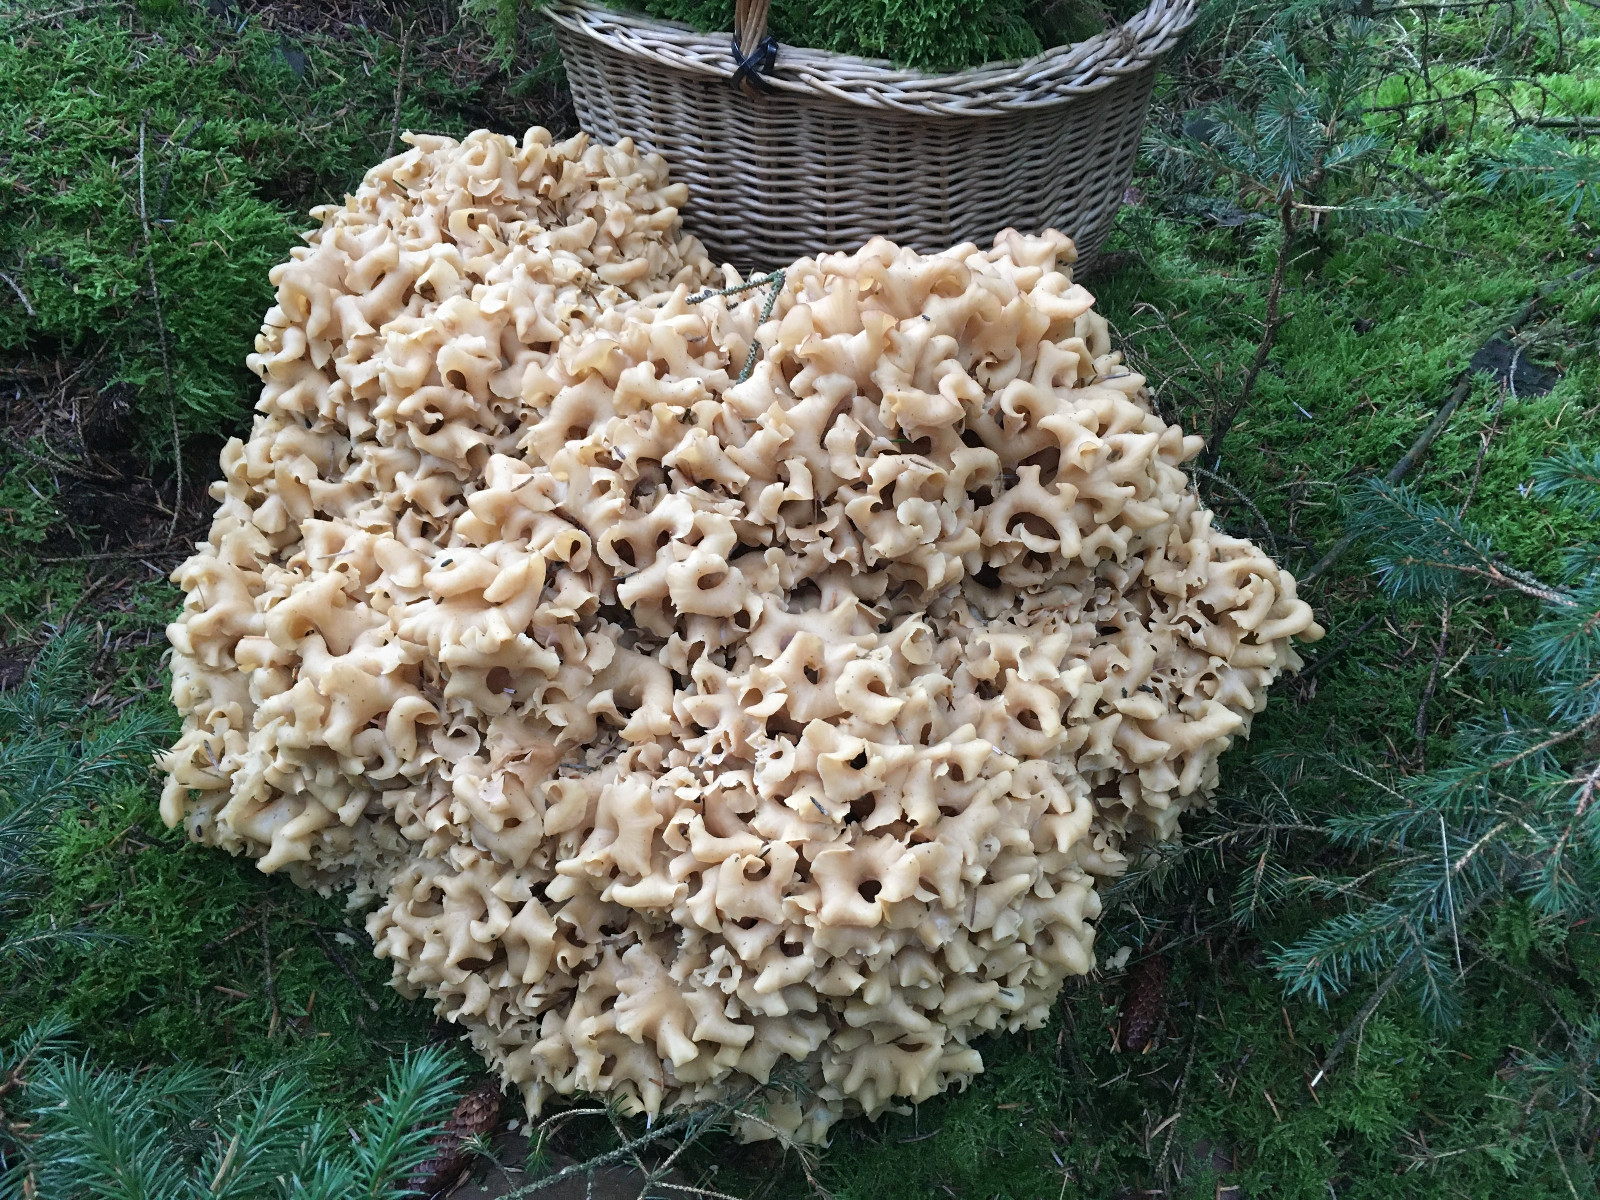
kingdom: Fungi
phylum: Basidiomycota
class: Agaricomycetes
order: Polyporales
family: Sparassidaceae
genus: Sparassis
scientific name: Sparassis crispa
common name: kruset blomkålssvamp
